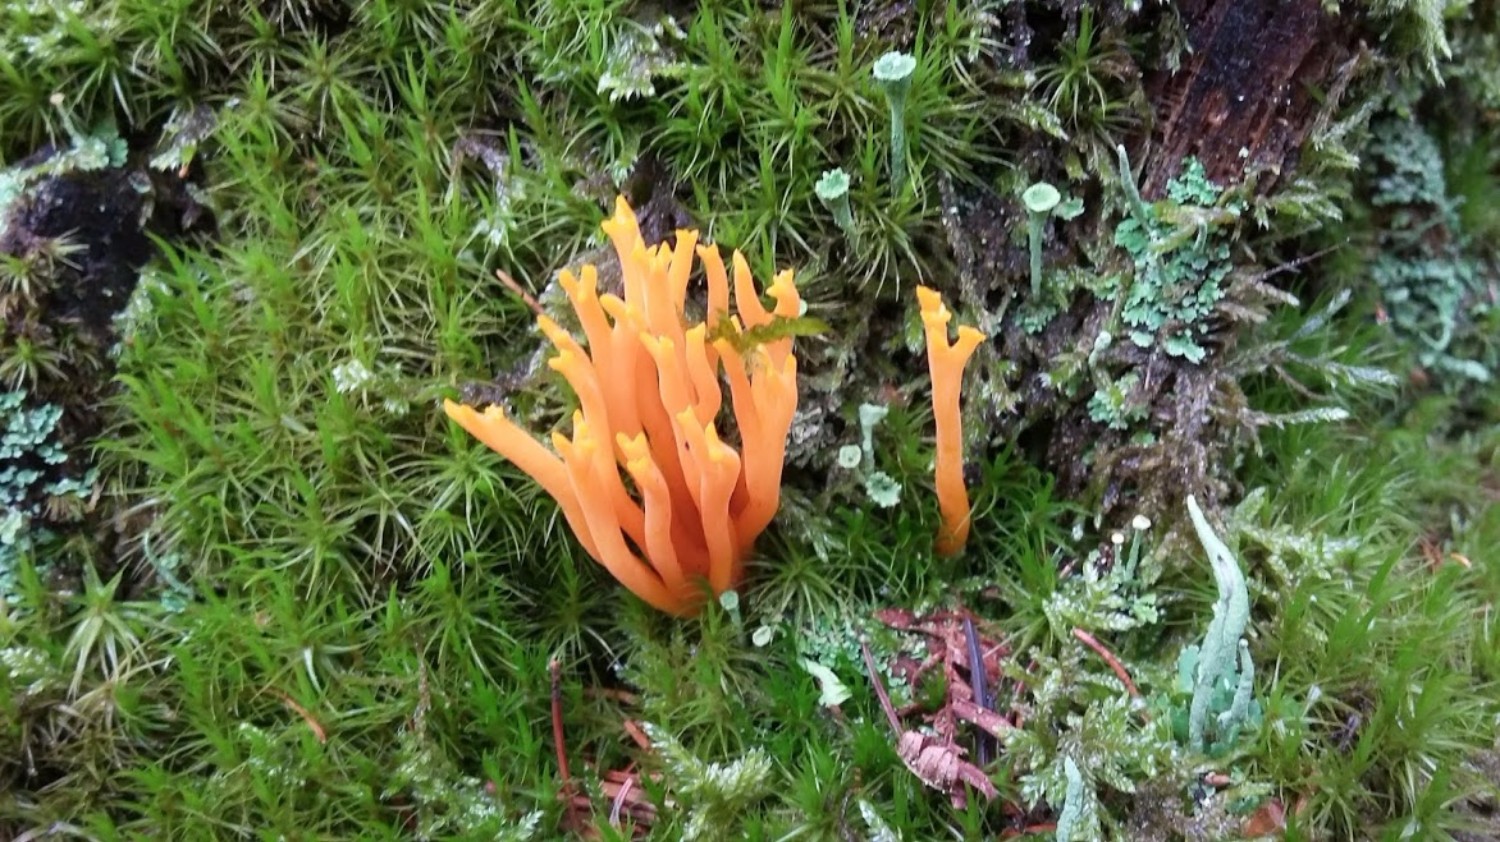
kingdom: Fungi
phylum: Basidiomycota
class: Dacrymycetes
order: Dacrymycetales
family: Dacrymycetaceae
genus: Calocera
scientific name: Calocera viscosa
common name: almindelig guldgaffel
